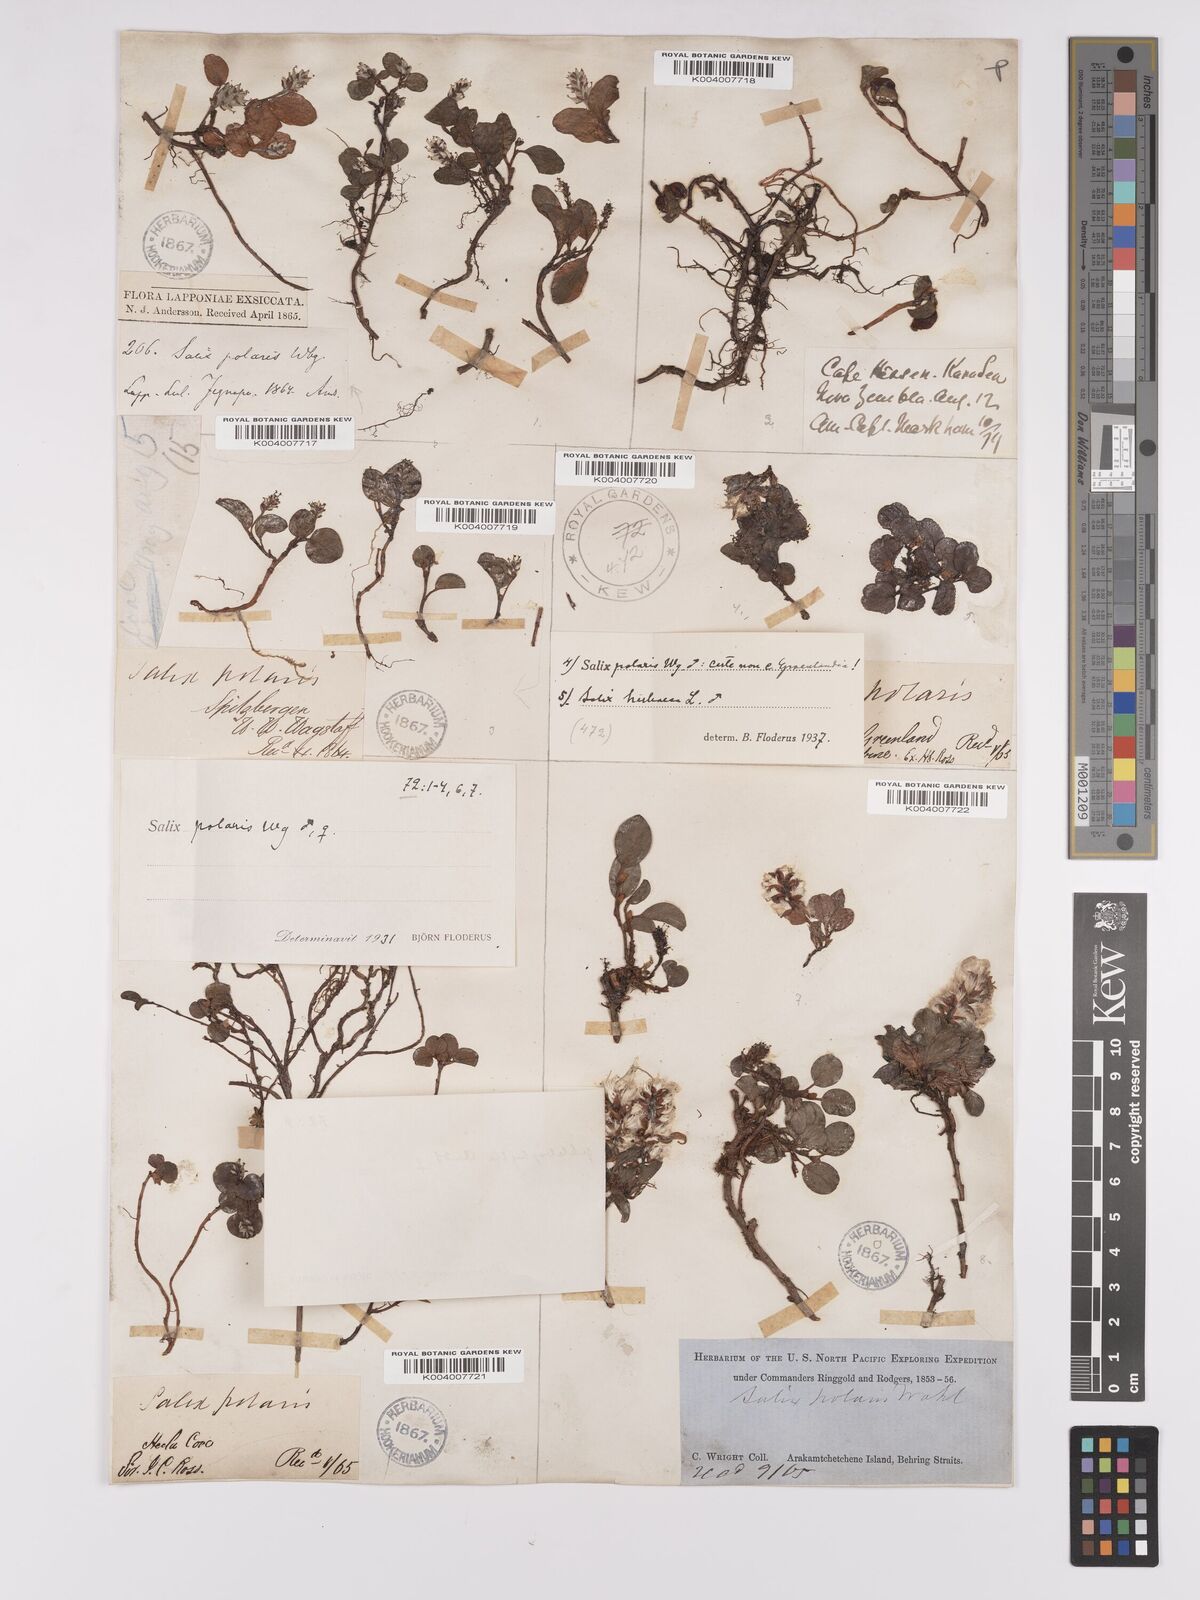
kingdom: Plantae
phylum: Tracheophyta
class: Magnoliopsida
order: Malpighiales
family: Salicaceae
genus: Salix
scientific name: Salix polaris
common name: Polar willow
